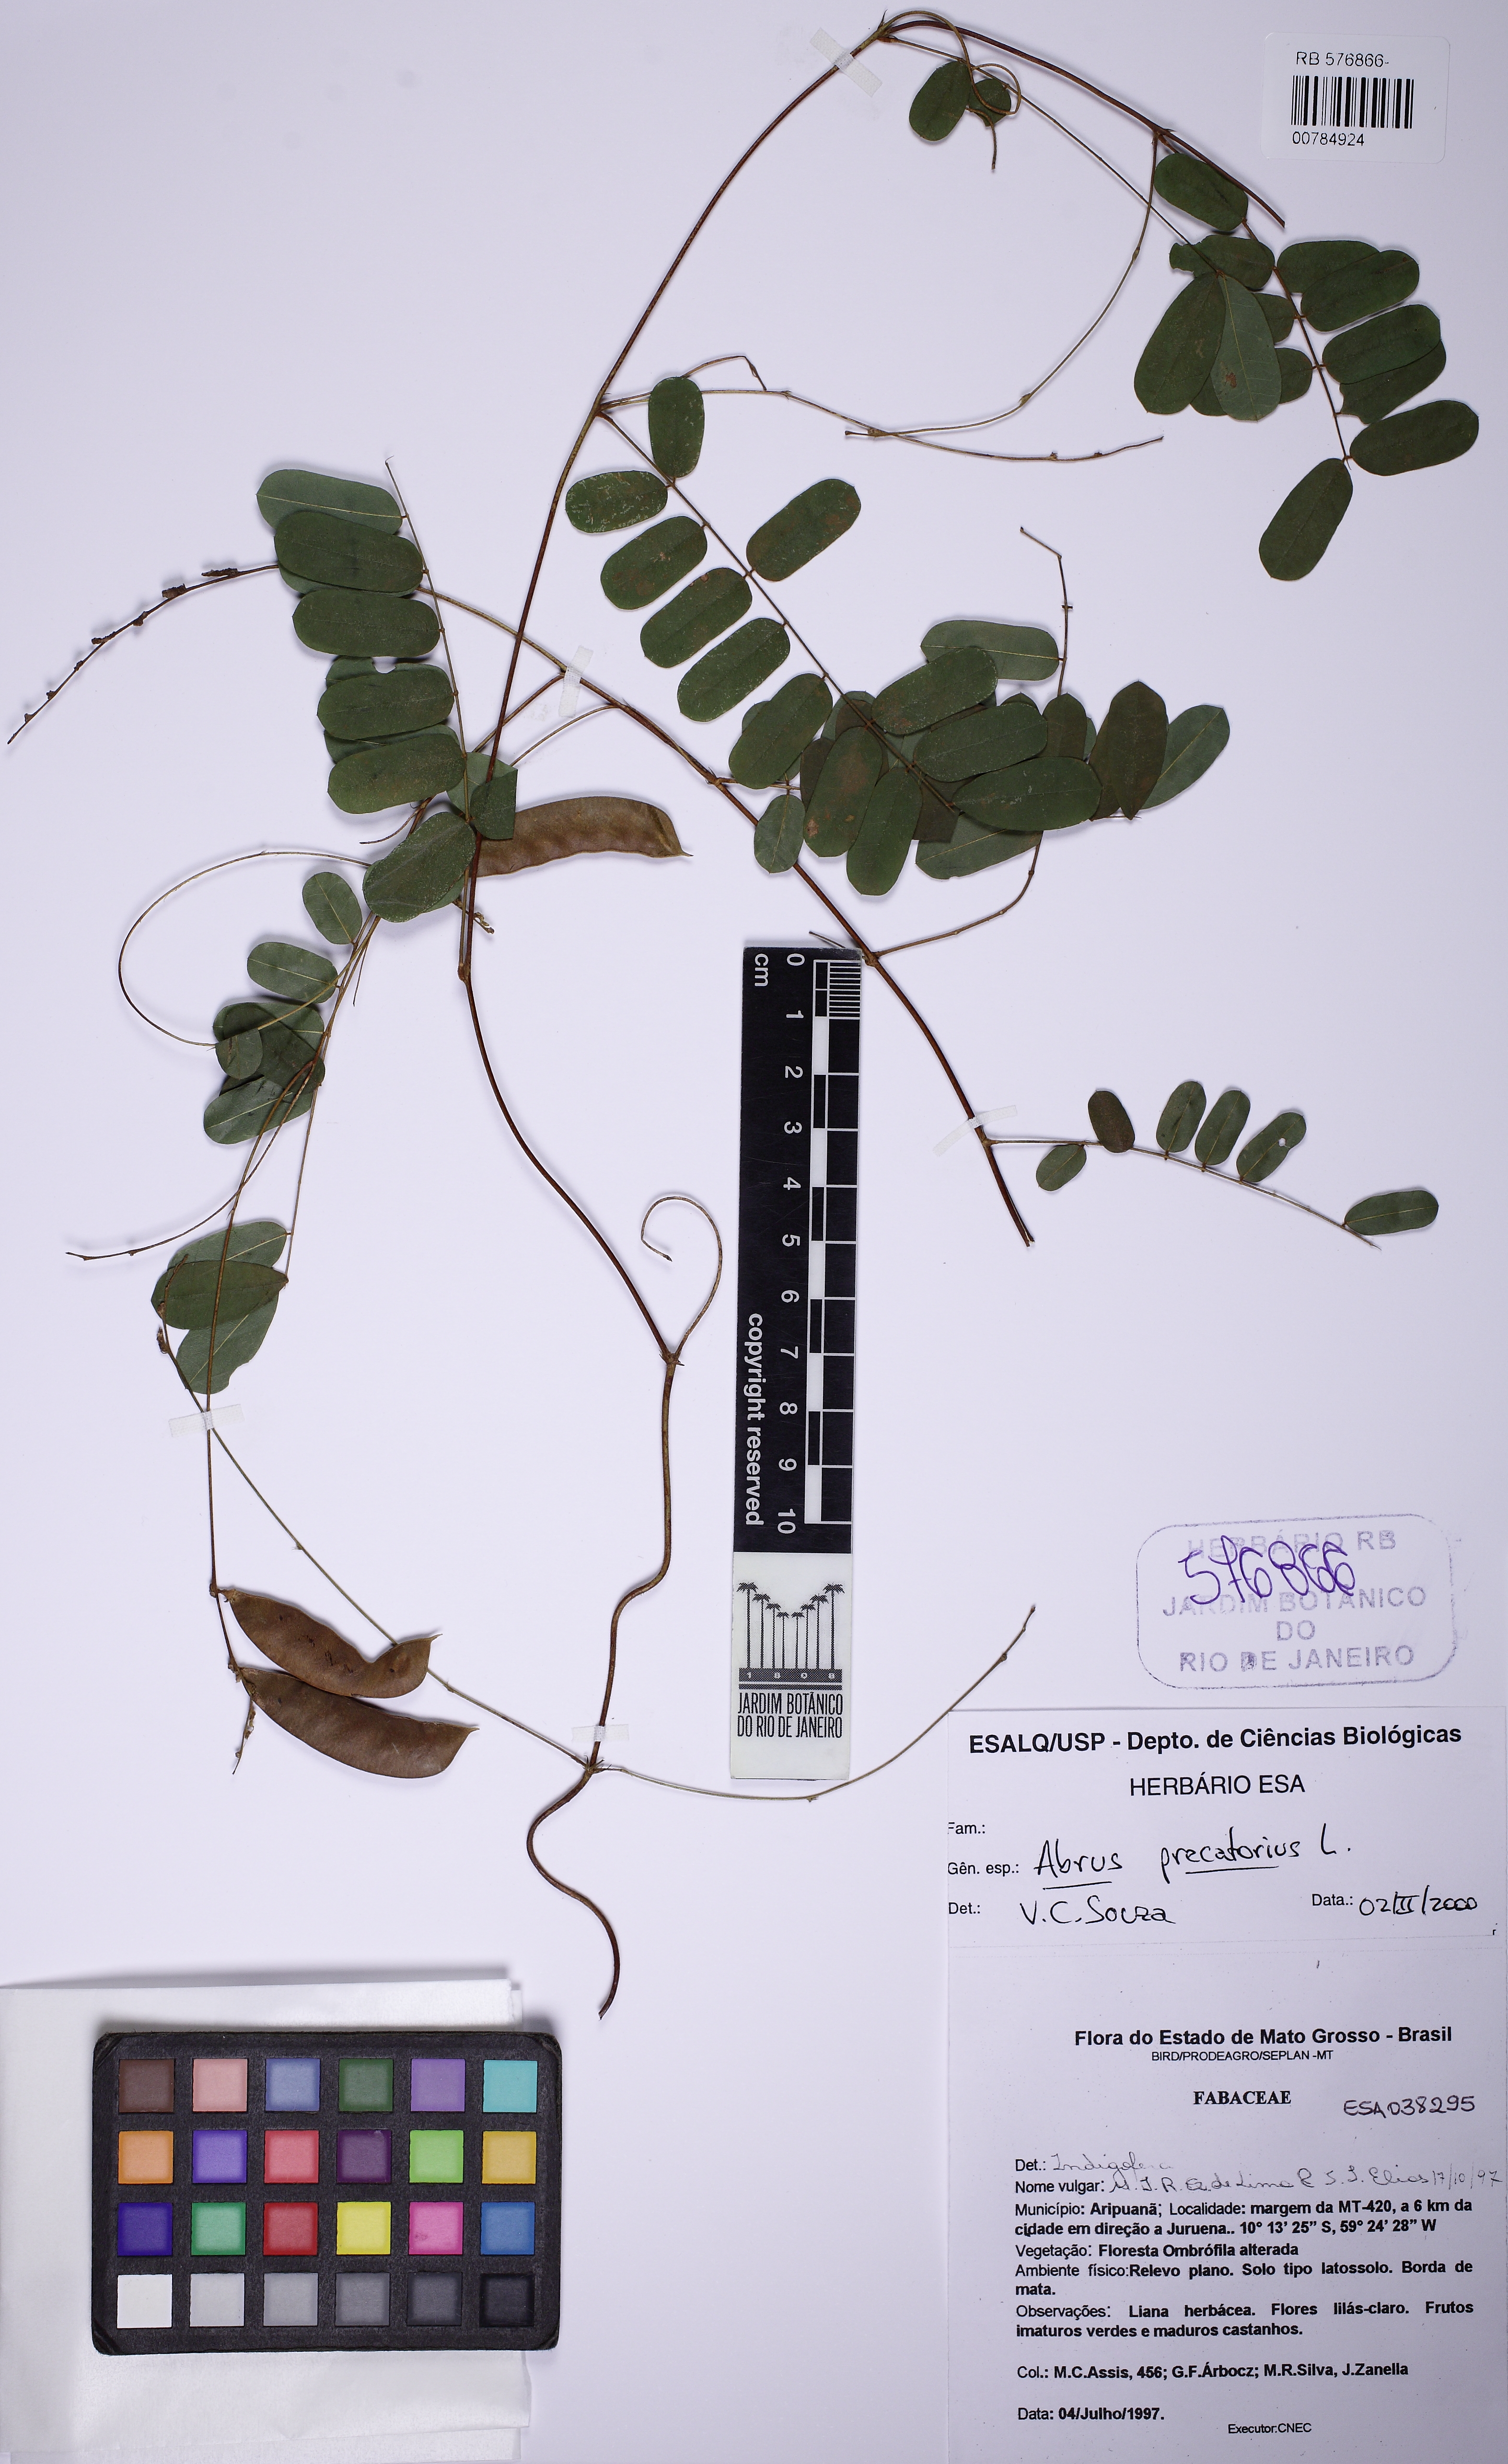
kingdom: Plantae
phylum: Tracheophyta
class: Magnoliopsida
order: Fabales
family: Fabaceae
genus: Abrus
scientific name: Abrus precatorius
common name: Rosarypea
